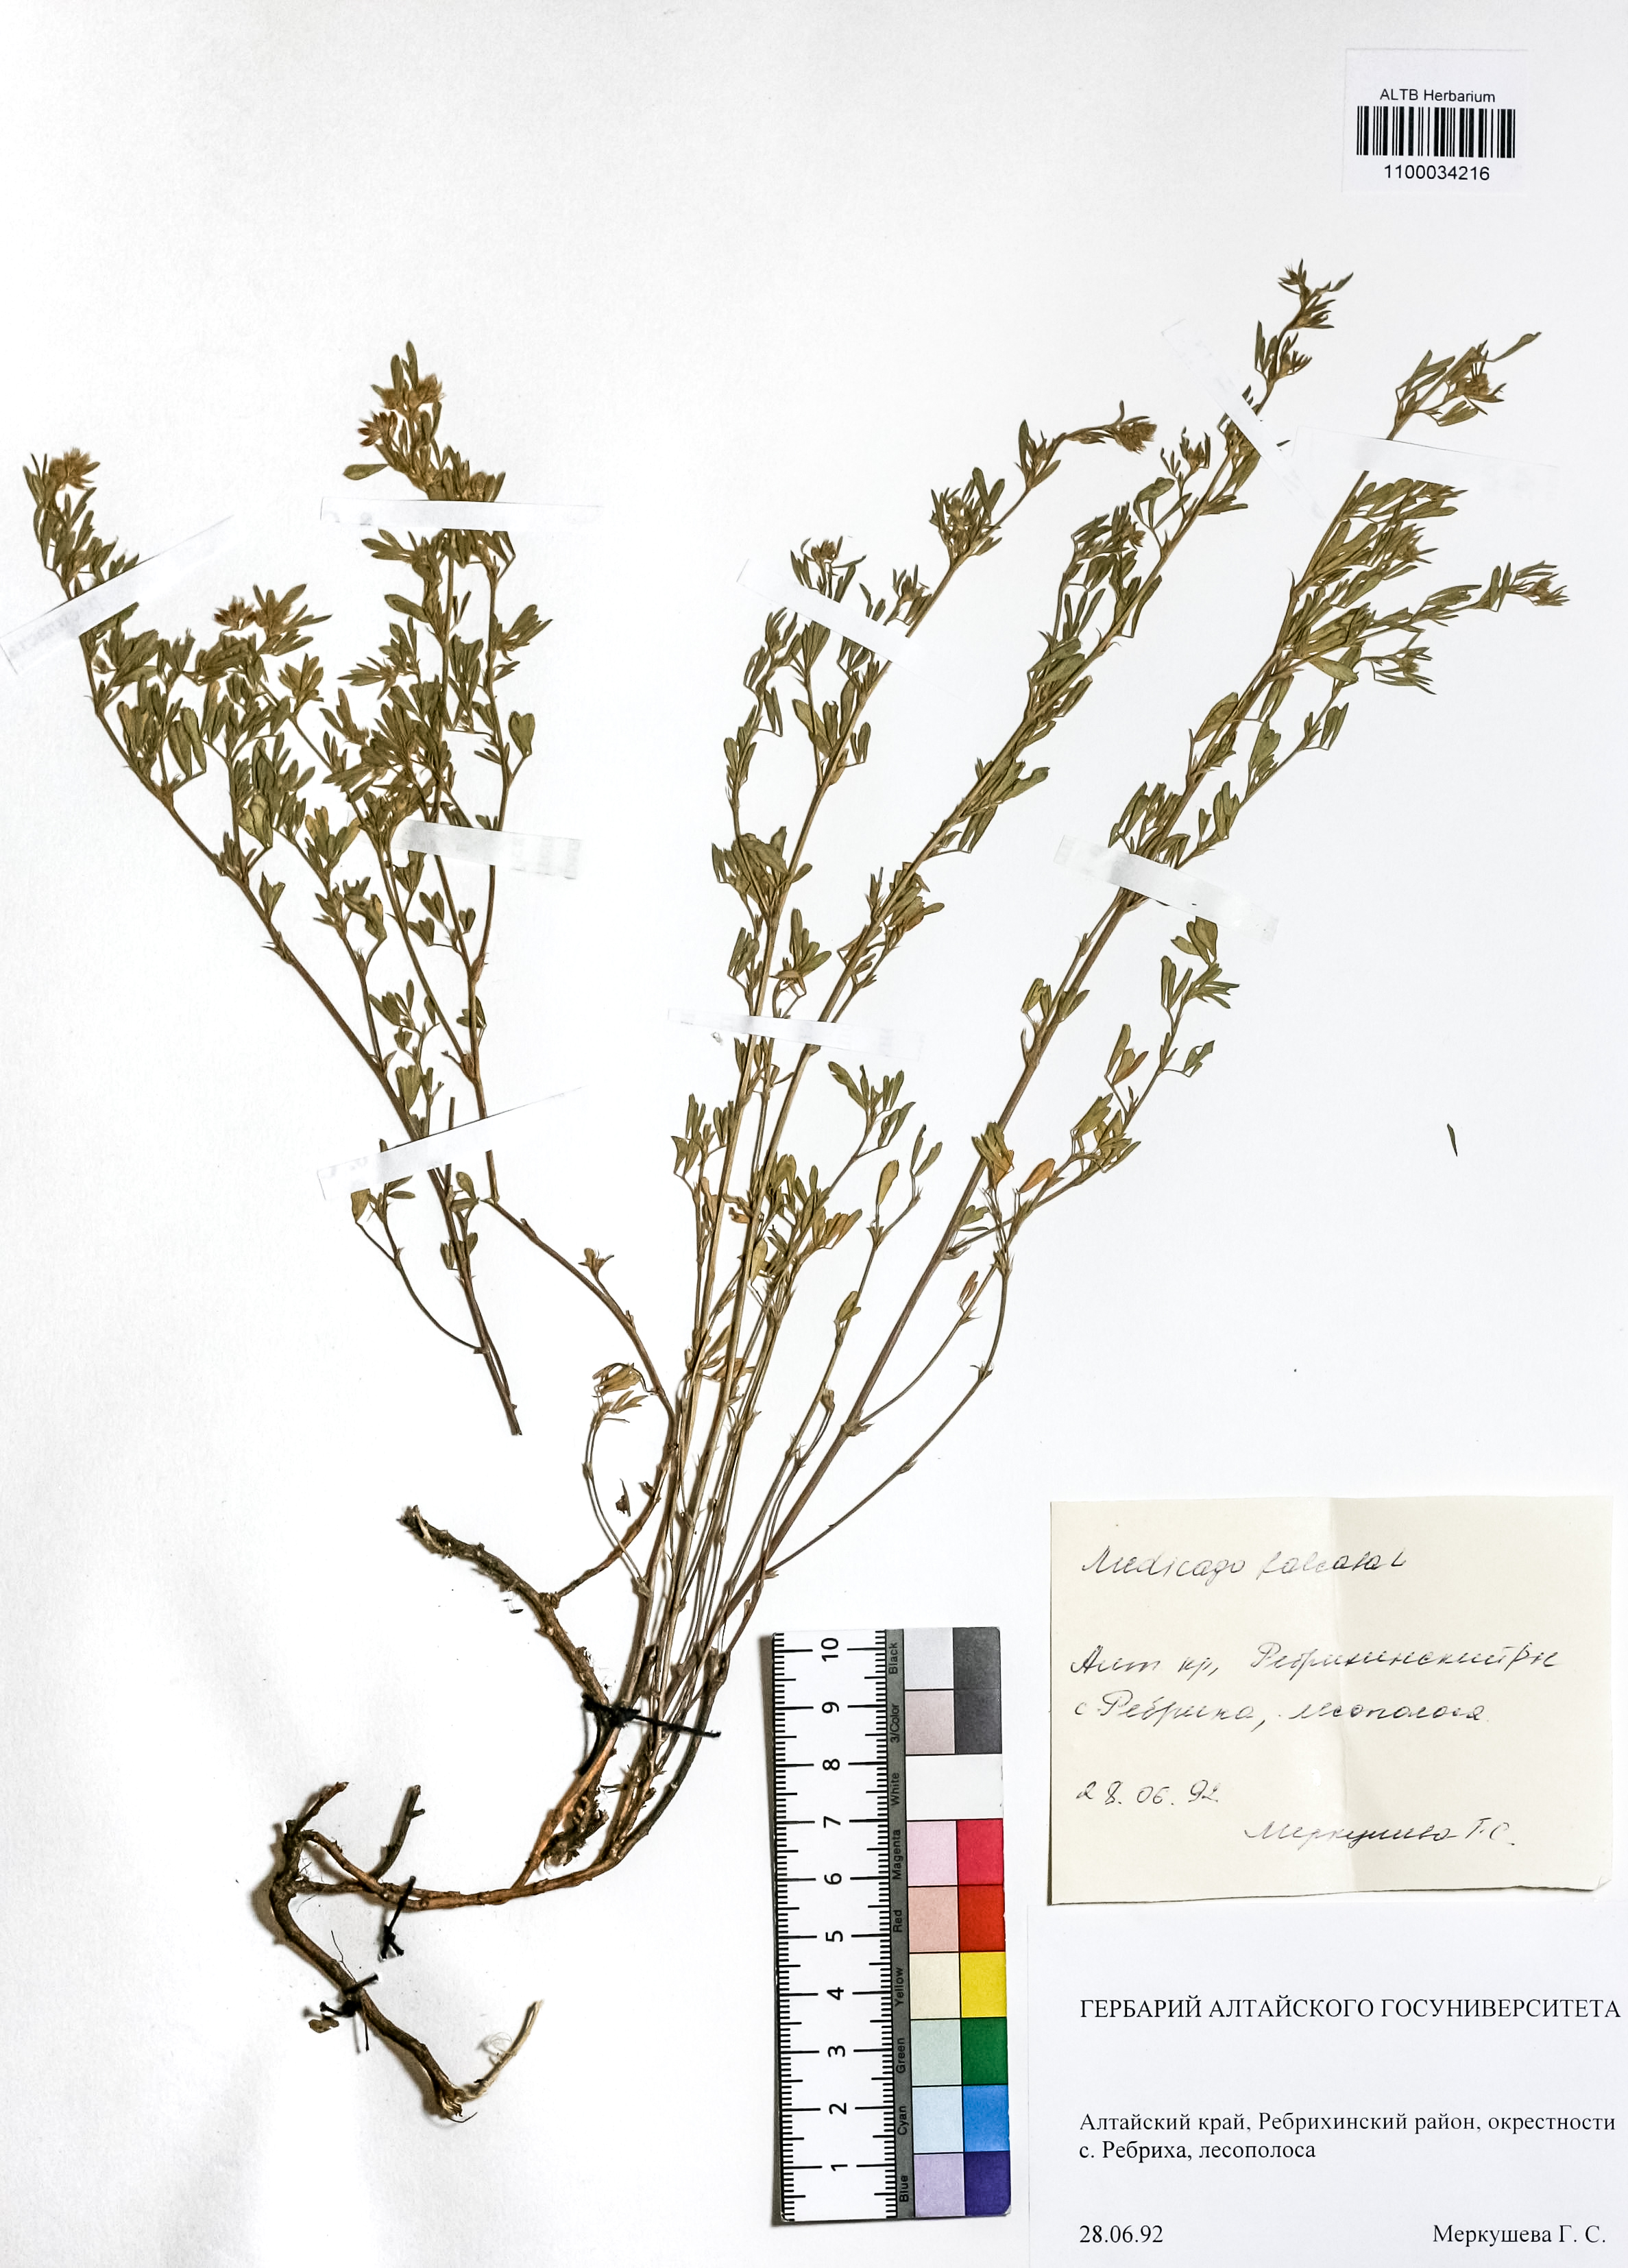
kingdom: Plantae
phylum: Tracheophyta
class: Magnoliopsida
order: Fabales
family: Fabaceae
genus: Medicago
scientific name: Medicago falcata
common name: Sickle medick
